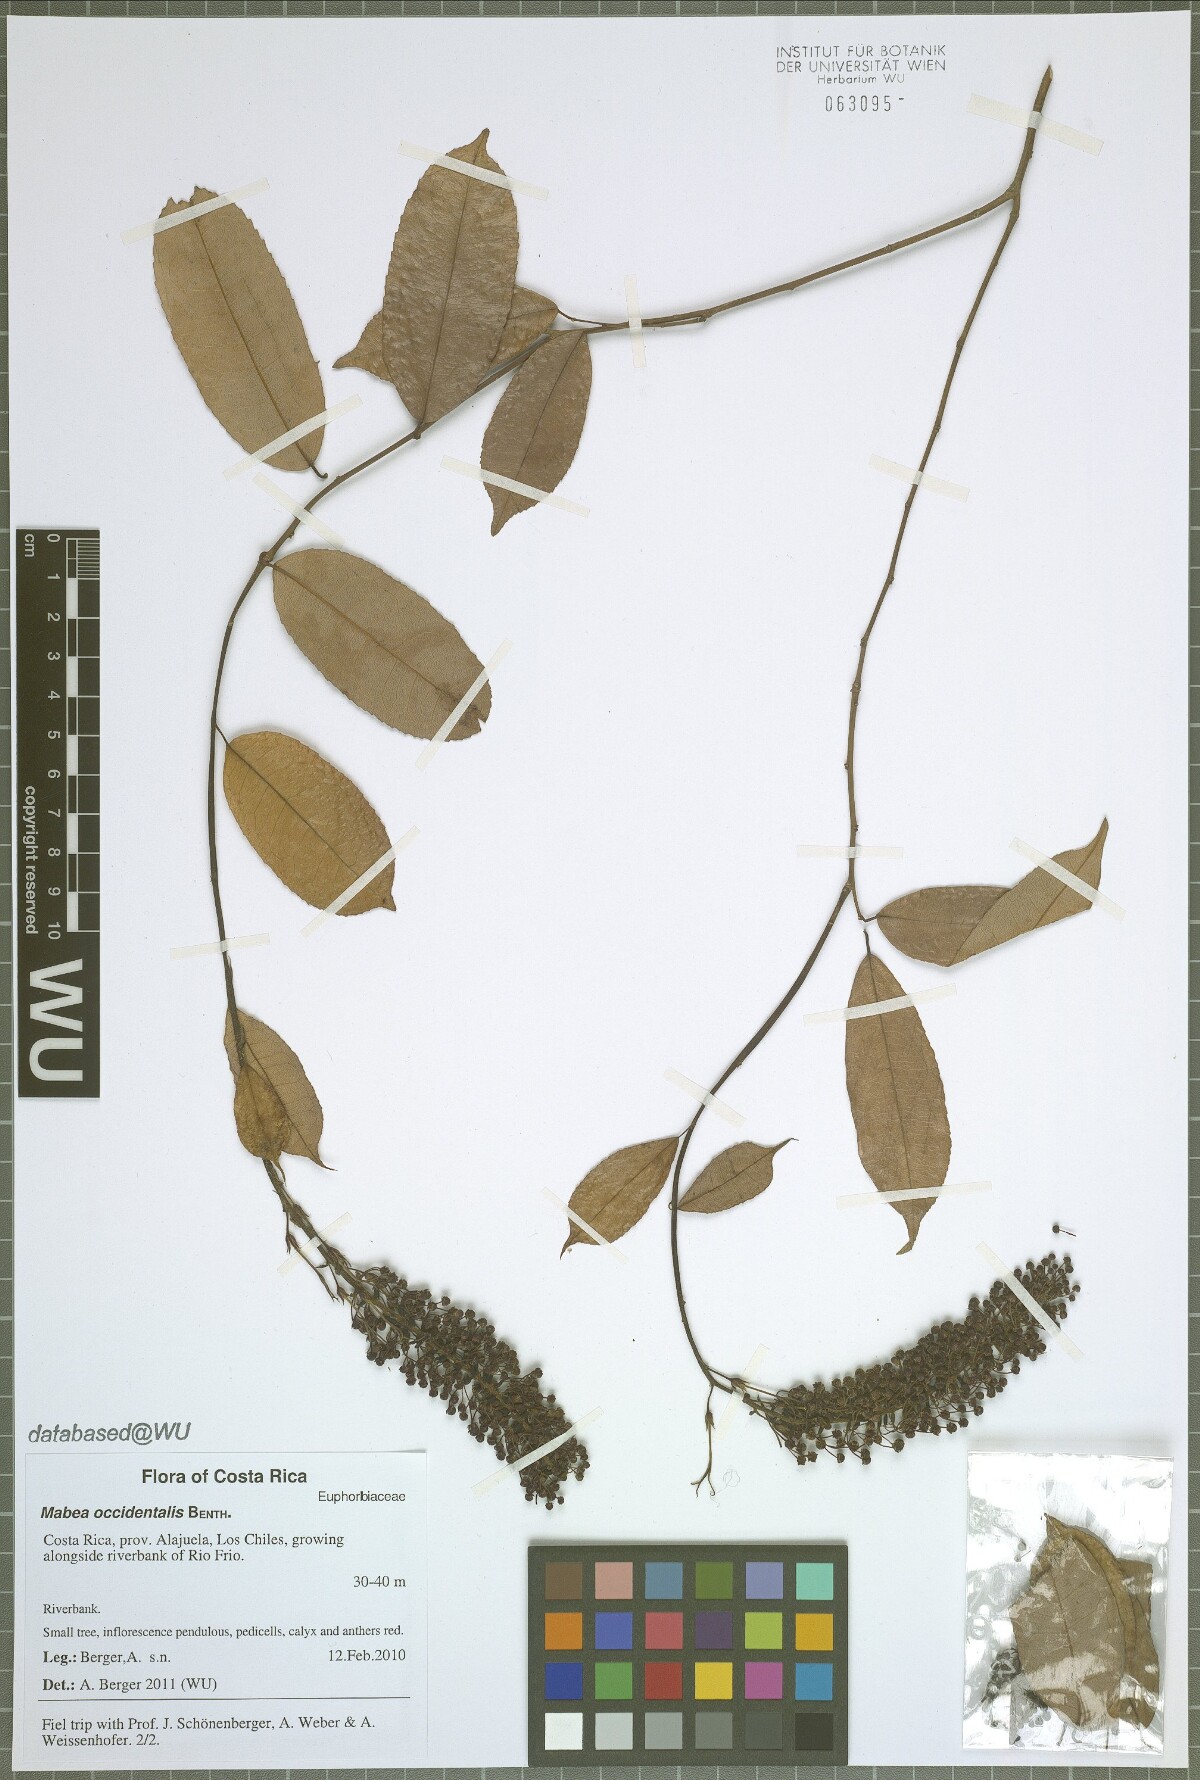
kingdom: Plantae
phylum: Tracheophyta
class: Magnoliopsida
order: Malpighiales
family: Euphorbiaceae
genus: Mabea
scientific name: Mabea occidentalis
